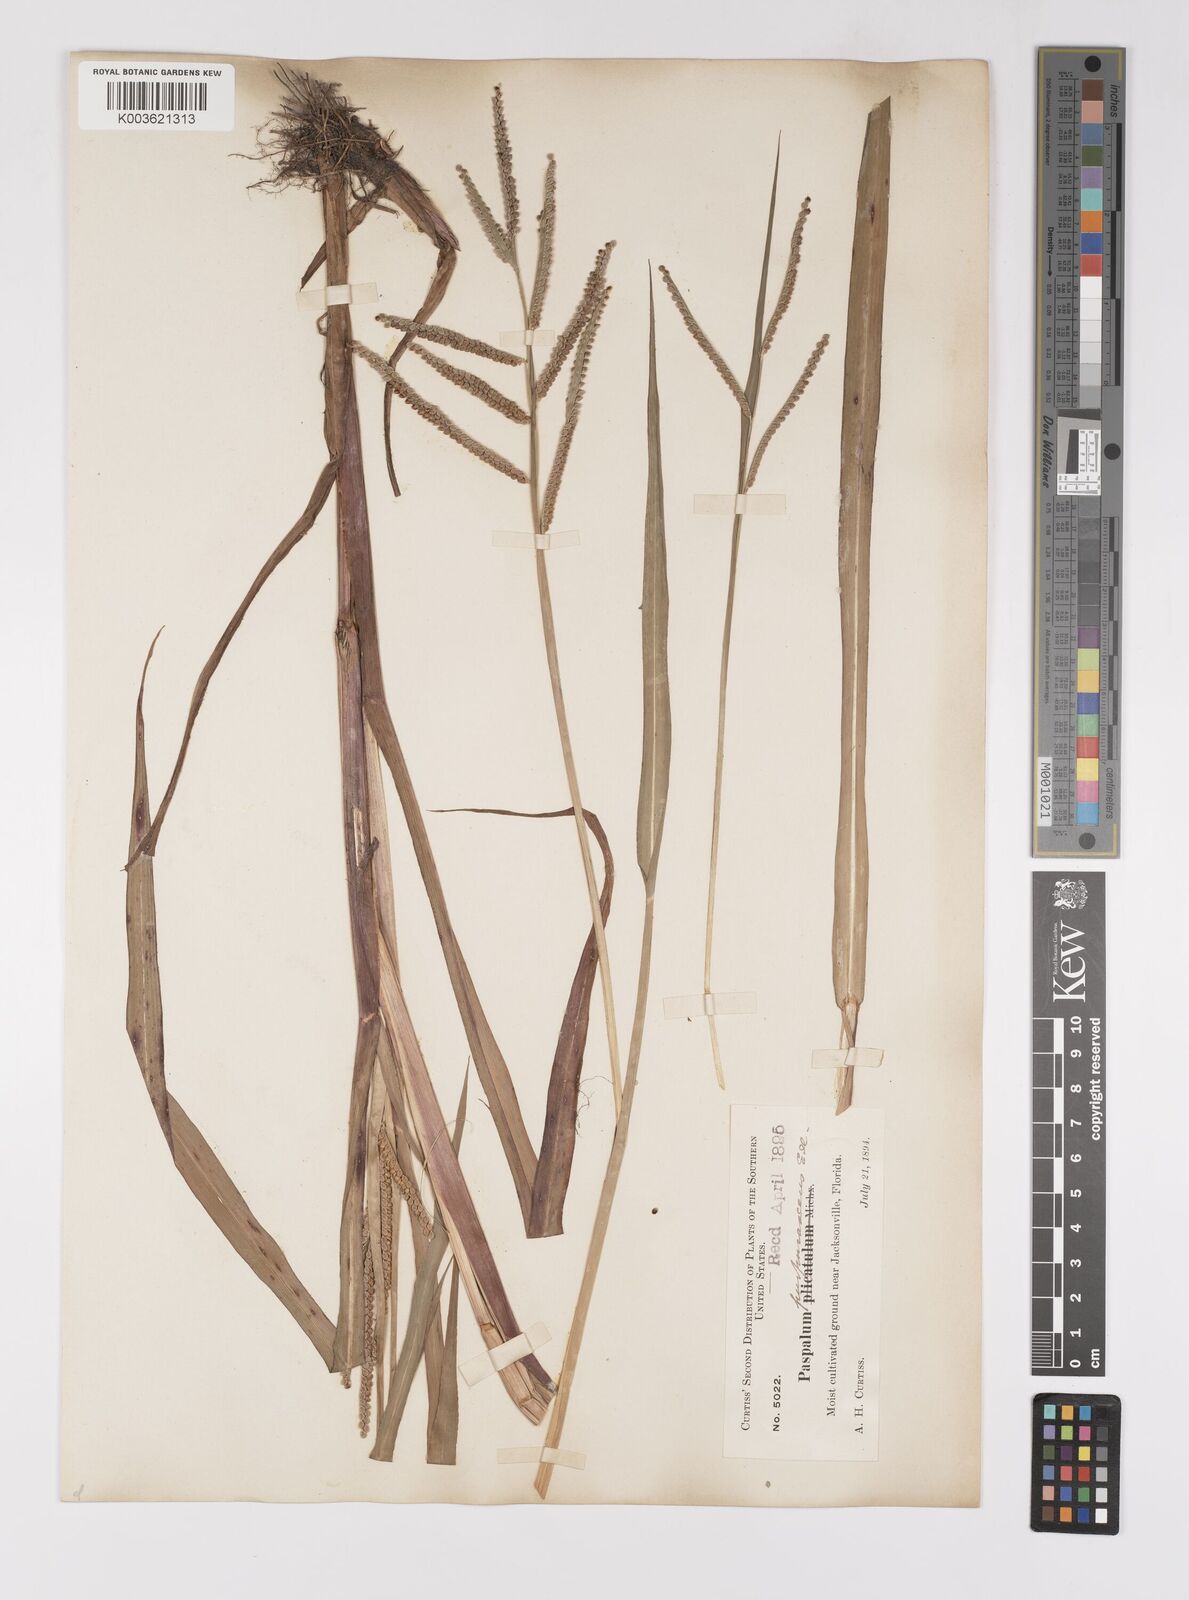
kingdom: Plantae
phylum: Tracheophyta
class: Liliopsida
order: Poales
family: Poaceae
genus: Paspalum
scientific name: Paspalum scrobiculatum
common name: Kodo millet
